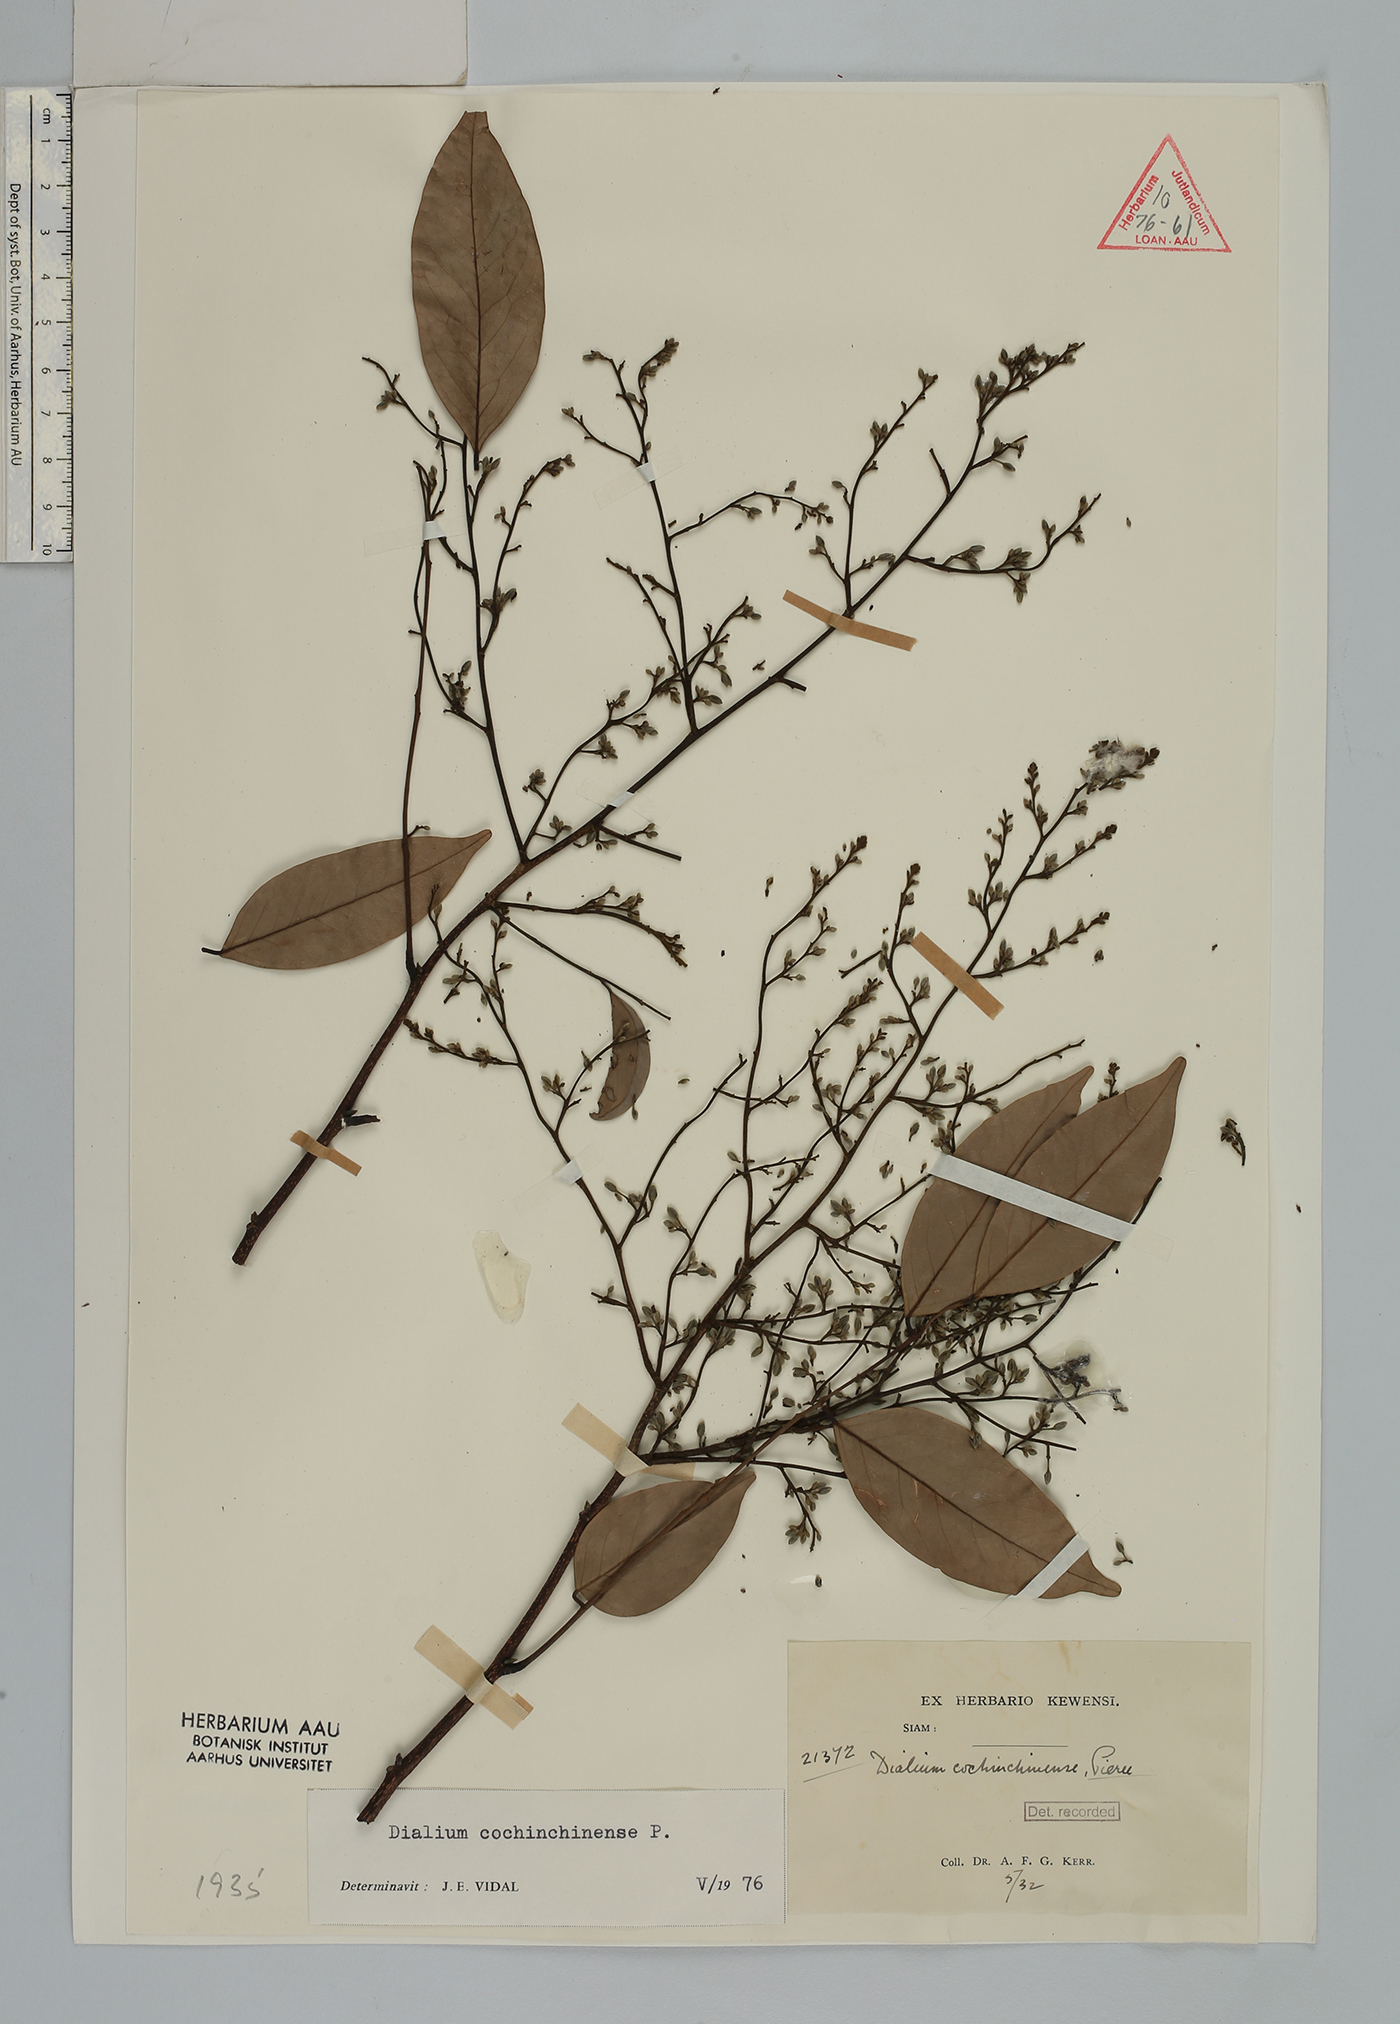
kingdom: Plantae
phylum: Tracheophyta
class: Magnoliopsida
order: Fabales
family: Fabaceae
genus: Dialium
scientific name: Dialium cochinchinense
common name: Velvet tamarind
